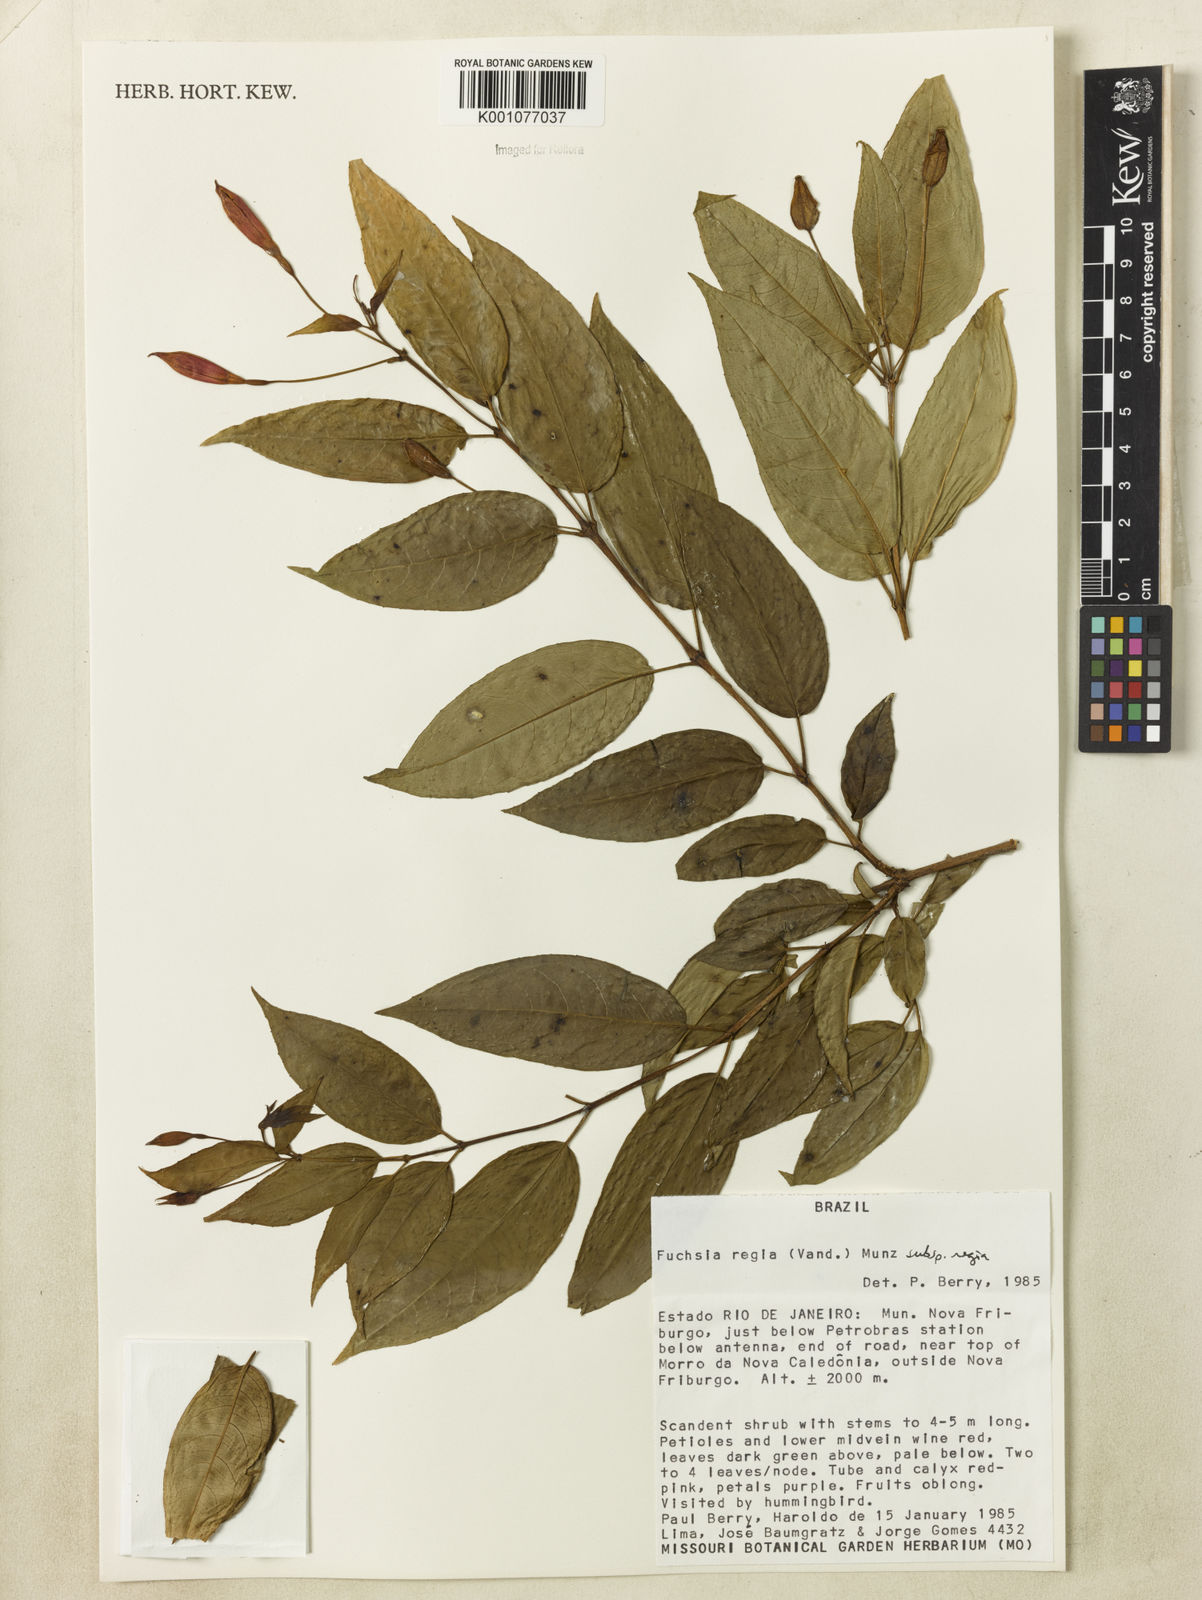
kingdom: Plantae
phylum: Tracheophyta
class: Magnoliopsida
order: Myrtales
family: Onagraceae
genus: Fuchsia
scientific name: Fuchsia regia
